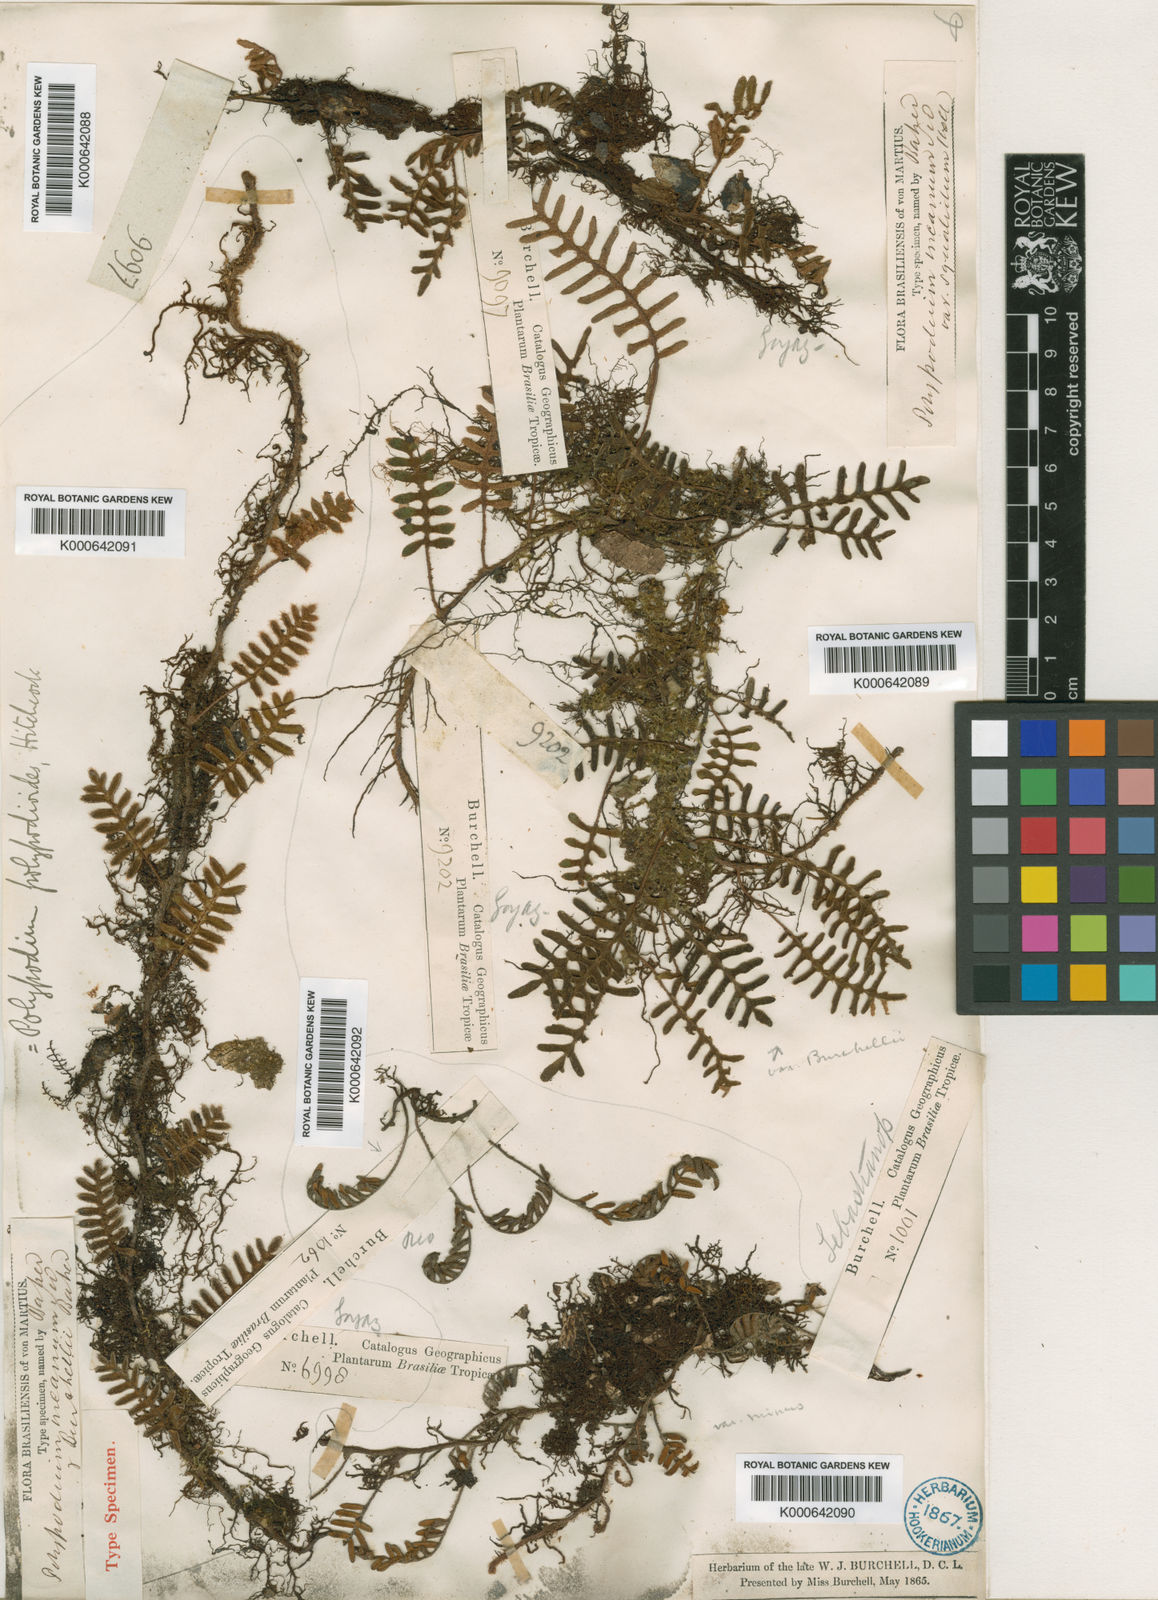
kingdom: Plantae
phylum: Tracheophyta
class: Polypodiopsida
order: Polypodiales
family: Polypodiaceae
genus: Pleopeltis
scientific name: Pleopeltis burchellii
